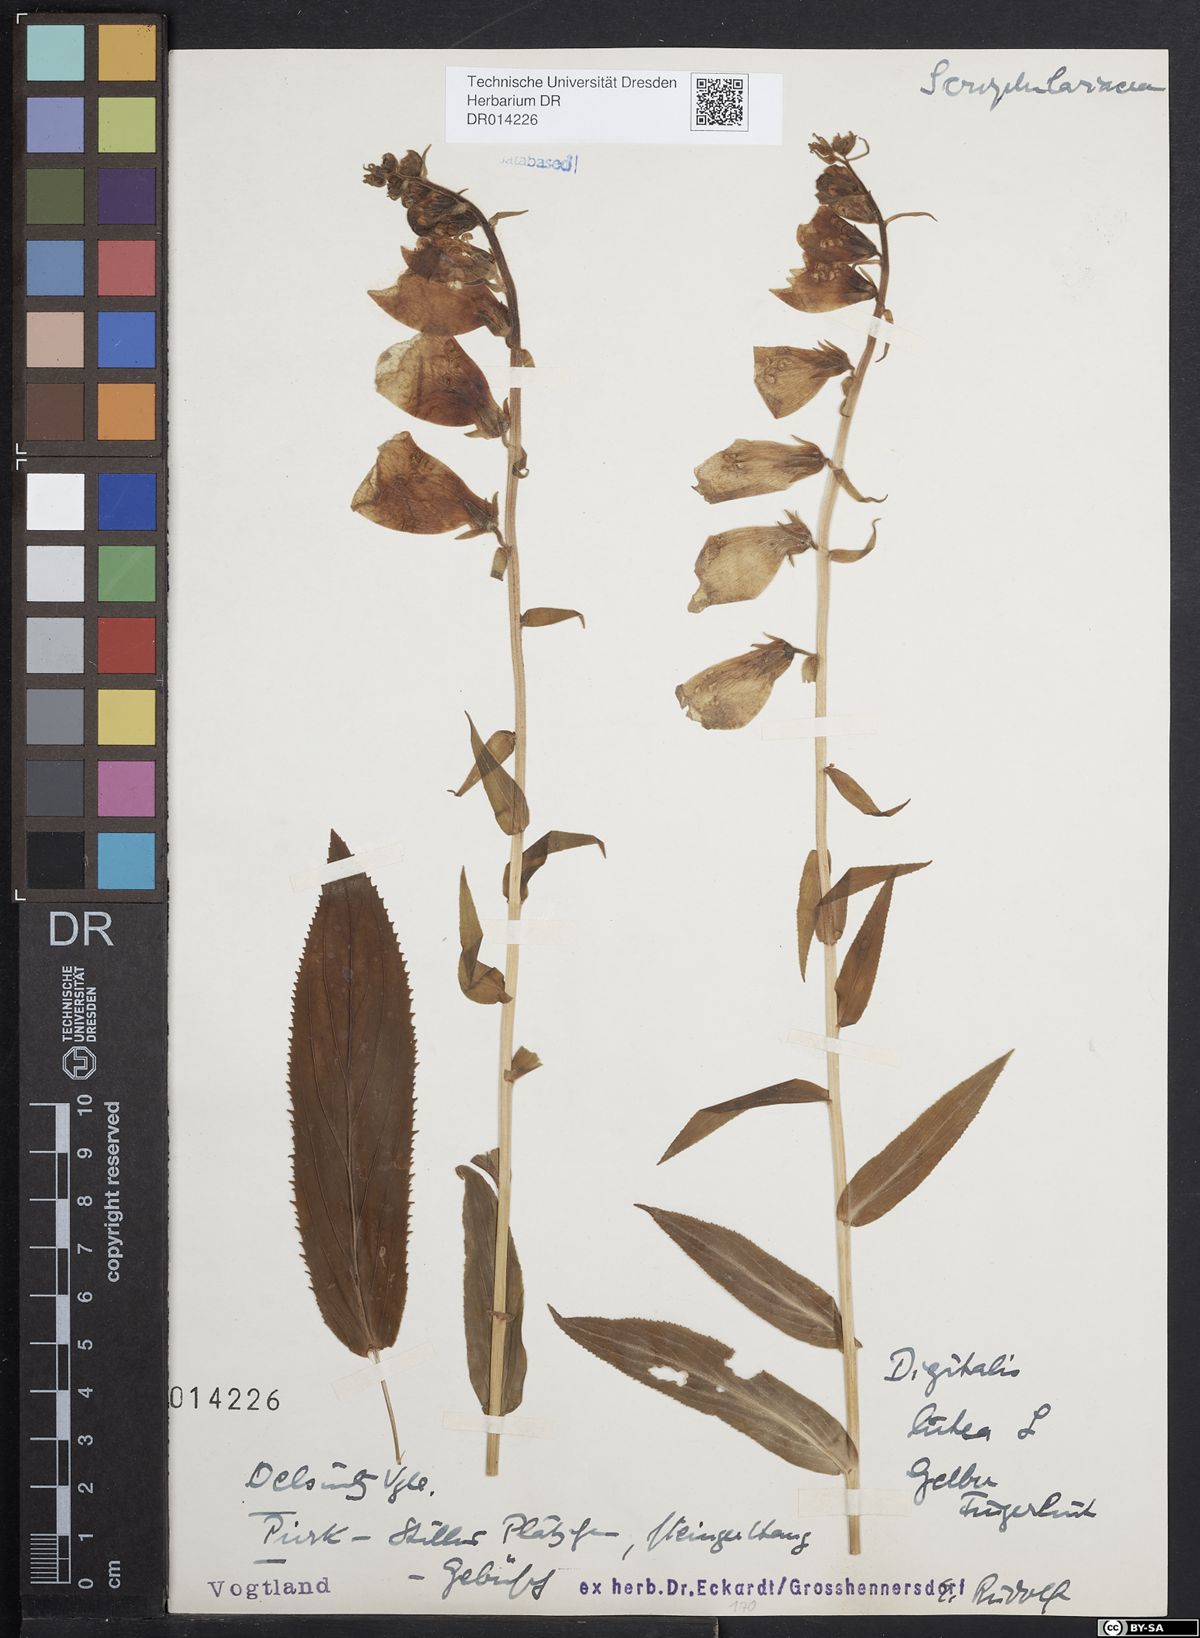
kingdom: Plantae
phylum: Tracheophyta
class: Magnoliopsida
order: Lamiales
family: Plantaginaceae
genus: Digitalis
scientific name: Digitalis grandiflora
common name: Yellow foxglove
